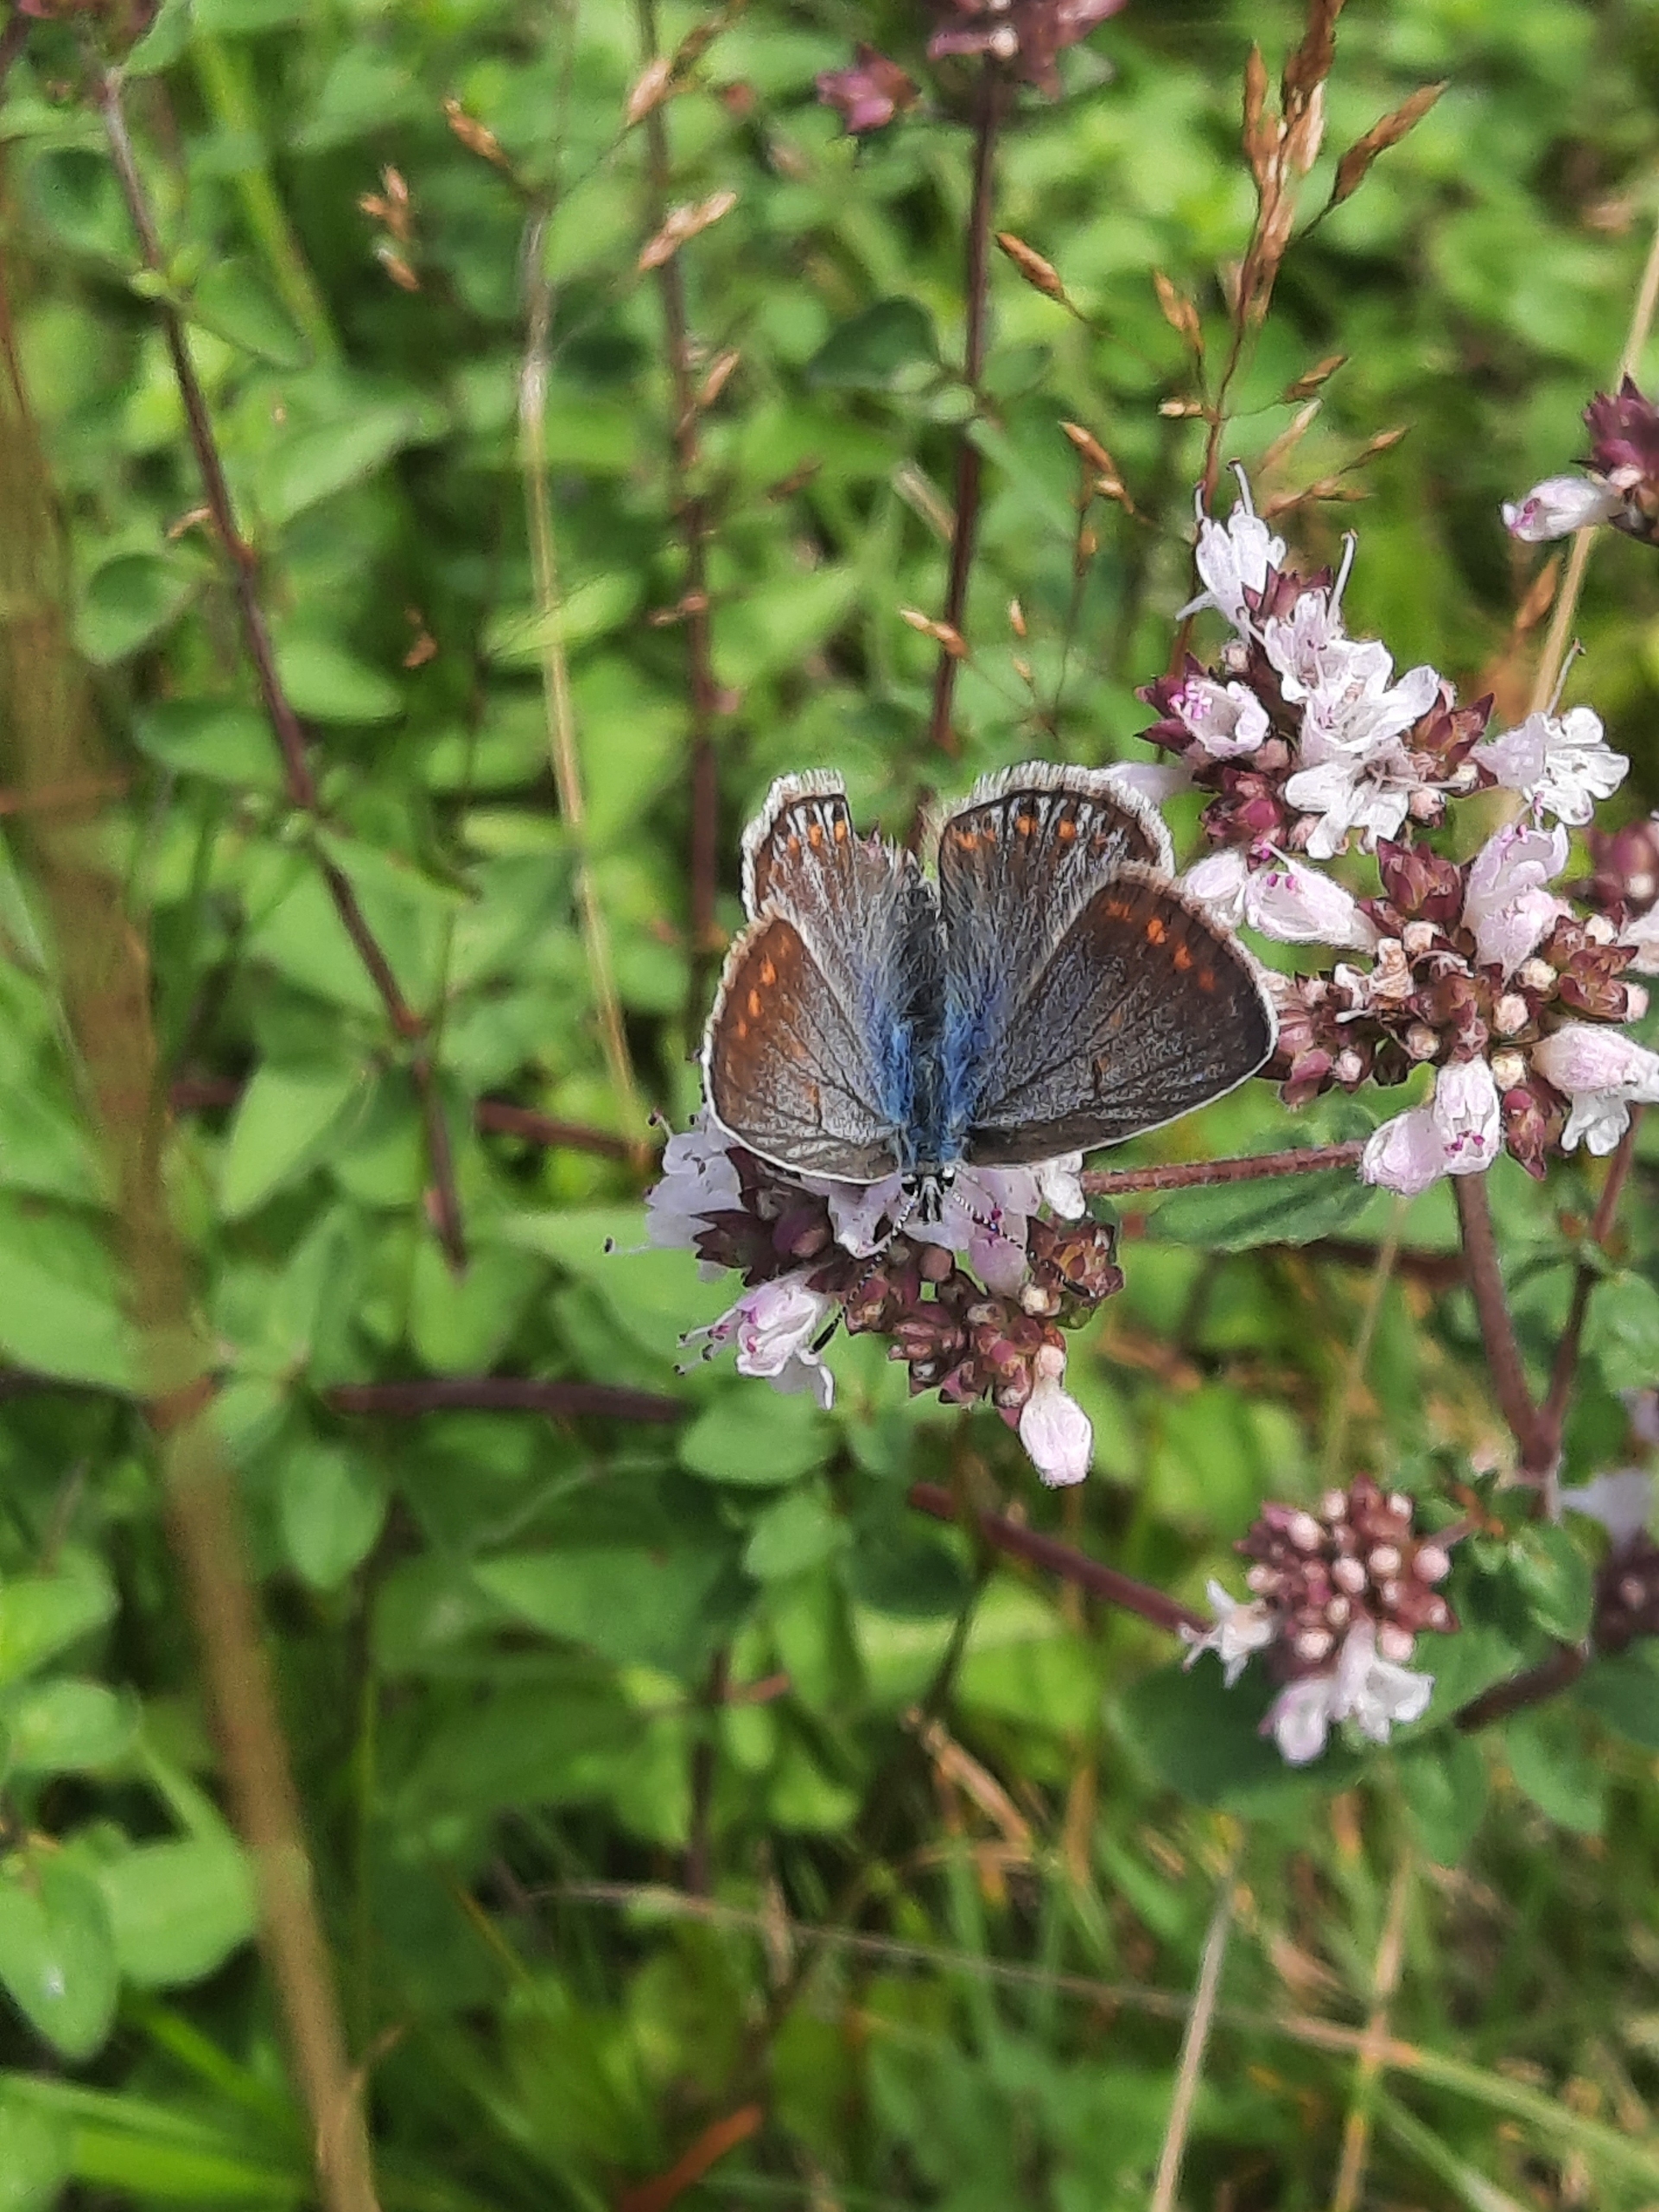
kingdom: Animalia
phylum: Arthropoda
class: Insecta
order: Lepidoptera
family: Lycaenidae
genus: Polyommatus
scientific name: Polyommatus icarus
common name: Almindelig blåfugl
